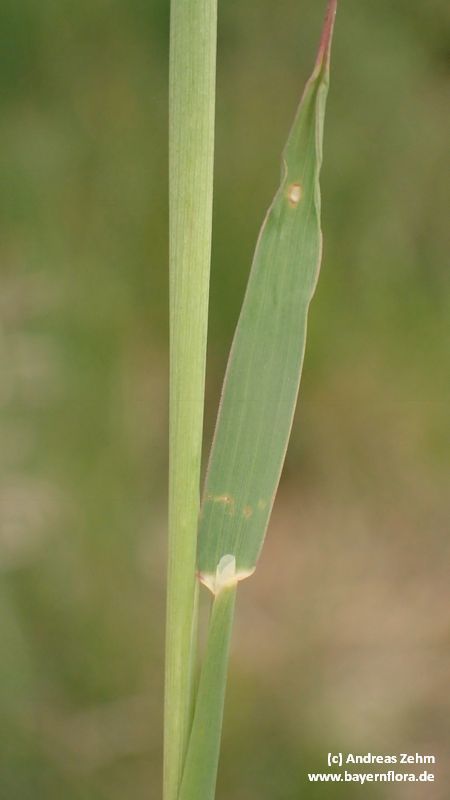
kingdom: Plantae
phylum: Tracheophyta
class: Liliopsida
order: Poales
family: Poaceae
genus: Phleum
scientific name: Phleum phleoides
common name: Purple-stem cat's-tail
